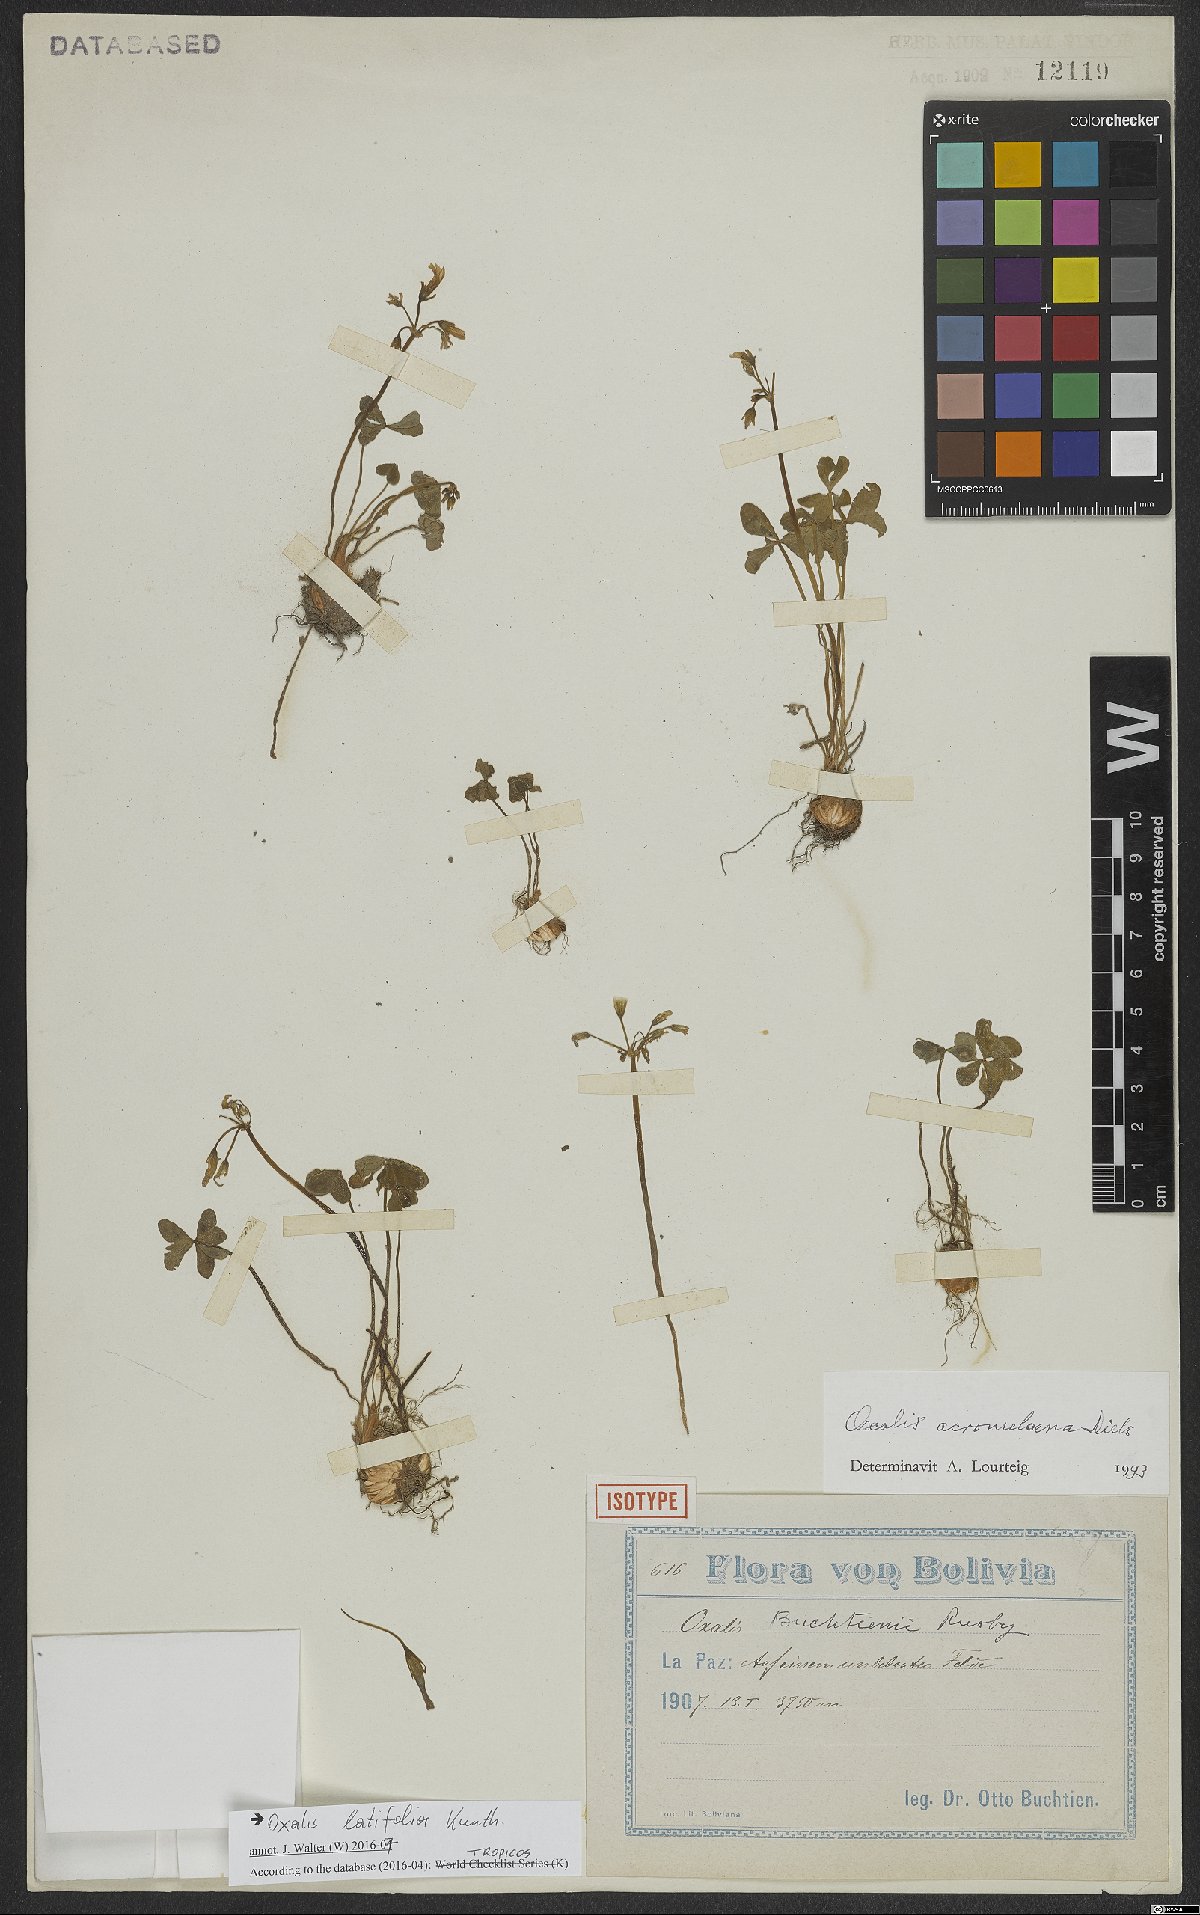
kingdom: Plantae
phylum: Tracheophyta
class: Magnoliopsida
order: Oxalidales
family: Oxalidaceae
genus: Oxalis
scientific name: Oxalis latifolia
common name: Garden pink-sorrel
